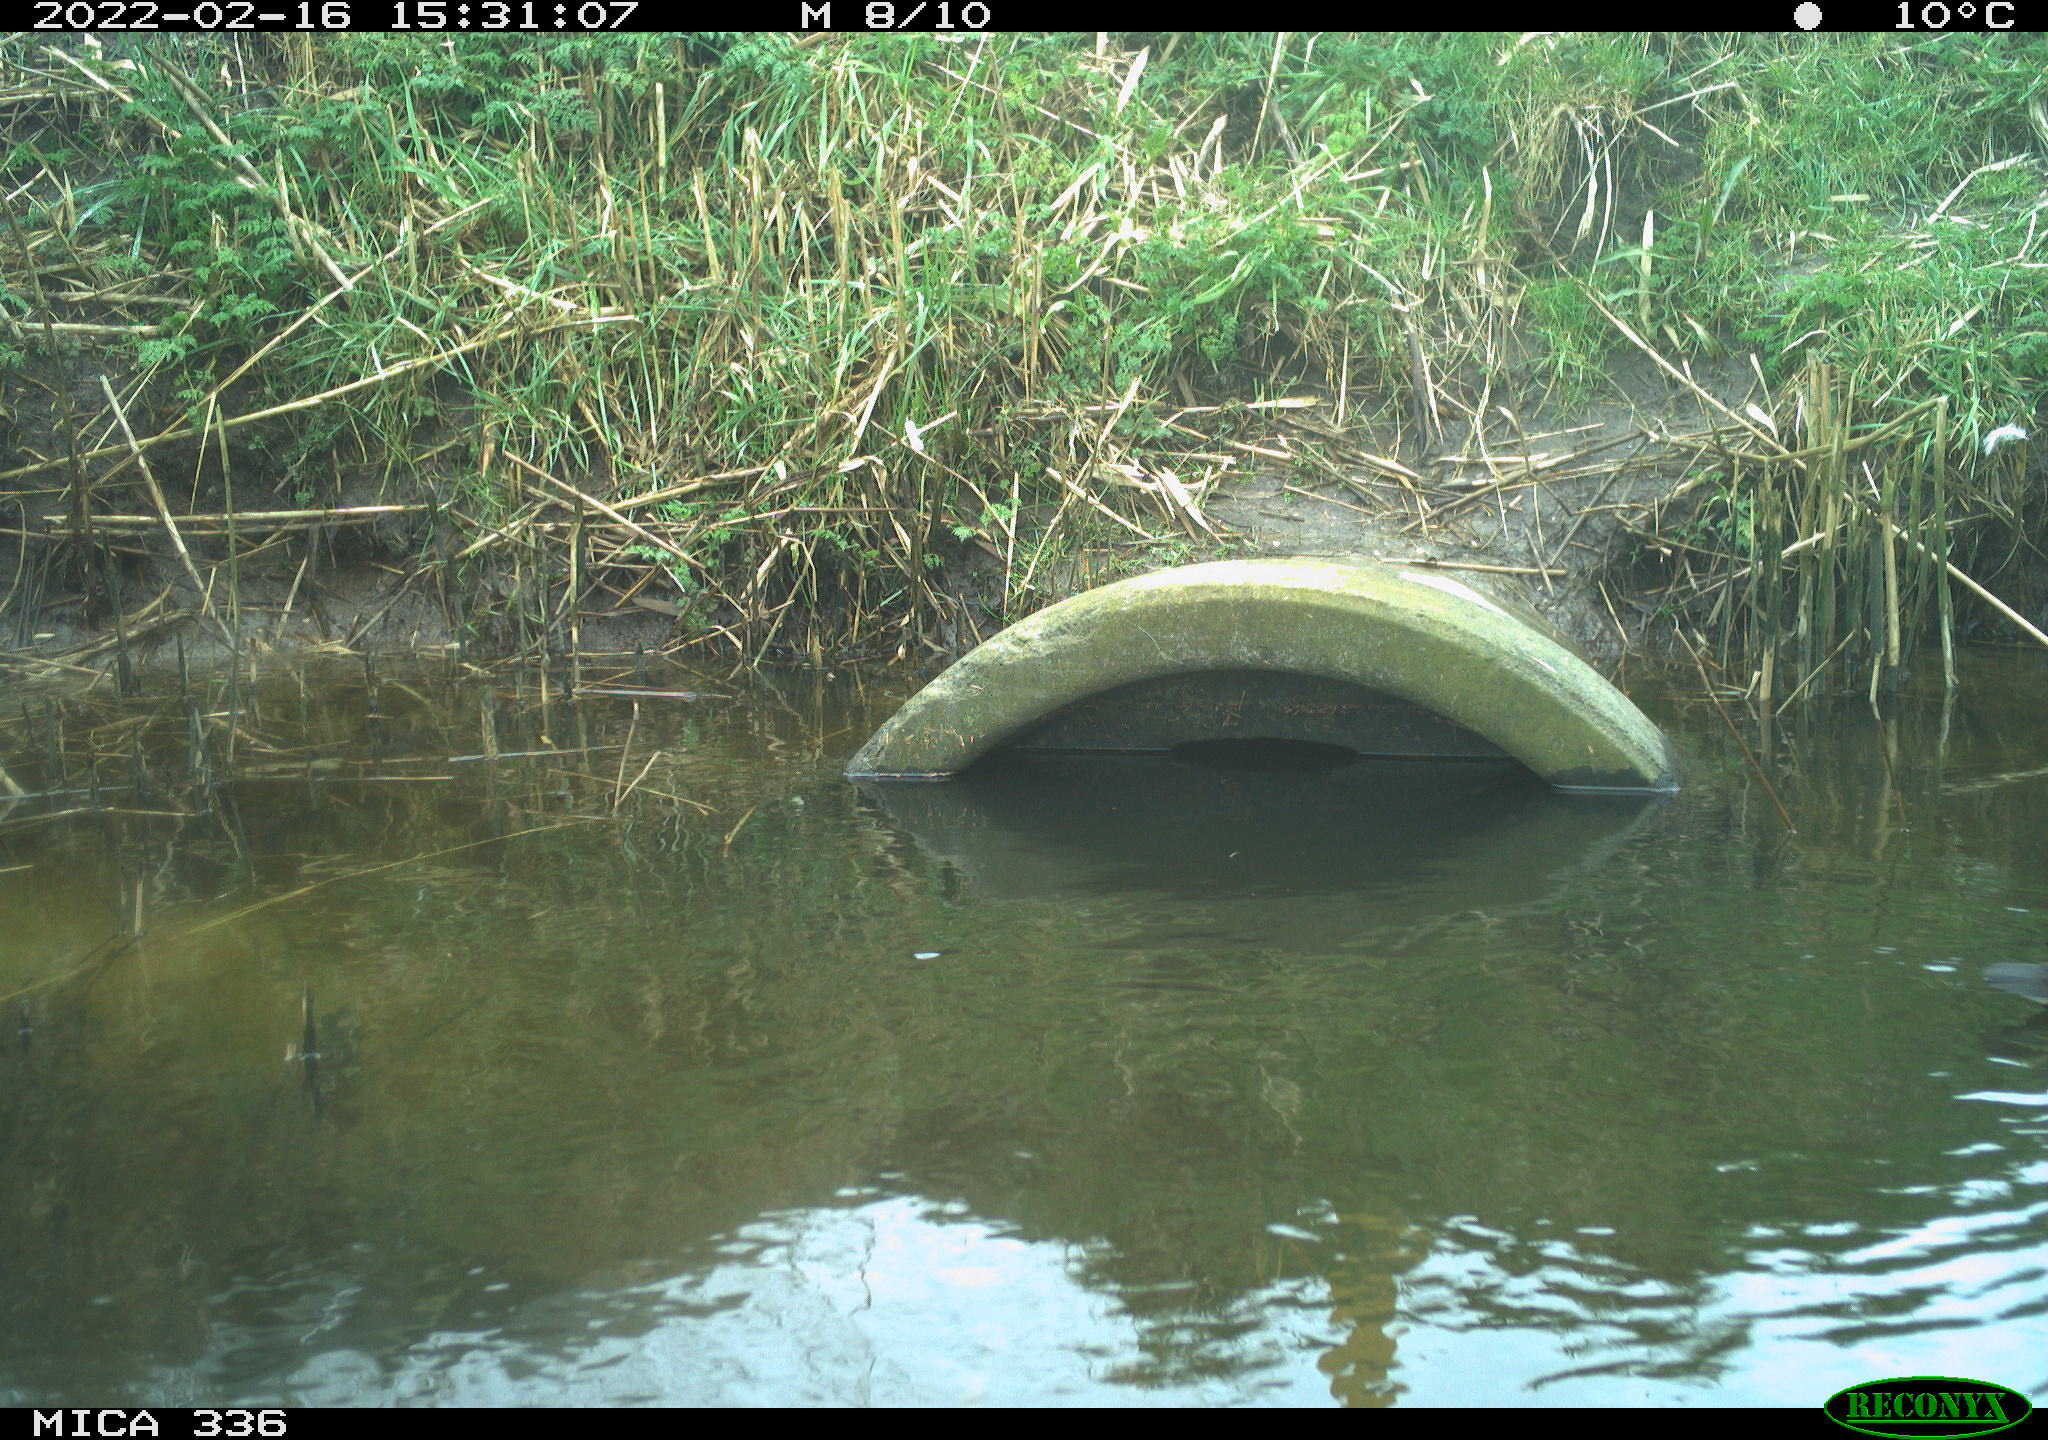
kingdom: Animalia
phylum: Chordata
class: Aves
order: Gruiformes
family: Rallidae
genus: Gallinula
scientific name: Gallinula chloropus
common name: Common moorhen
